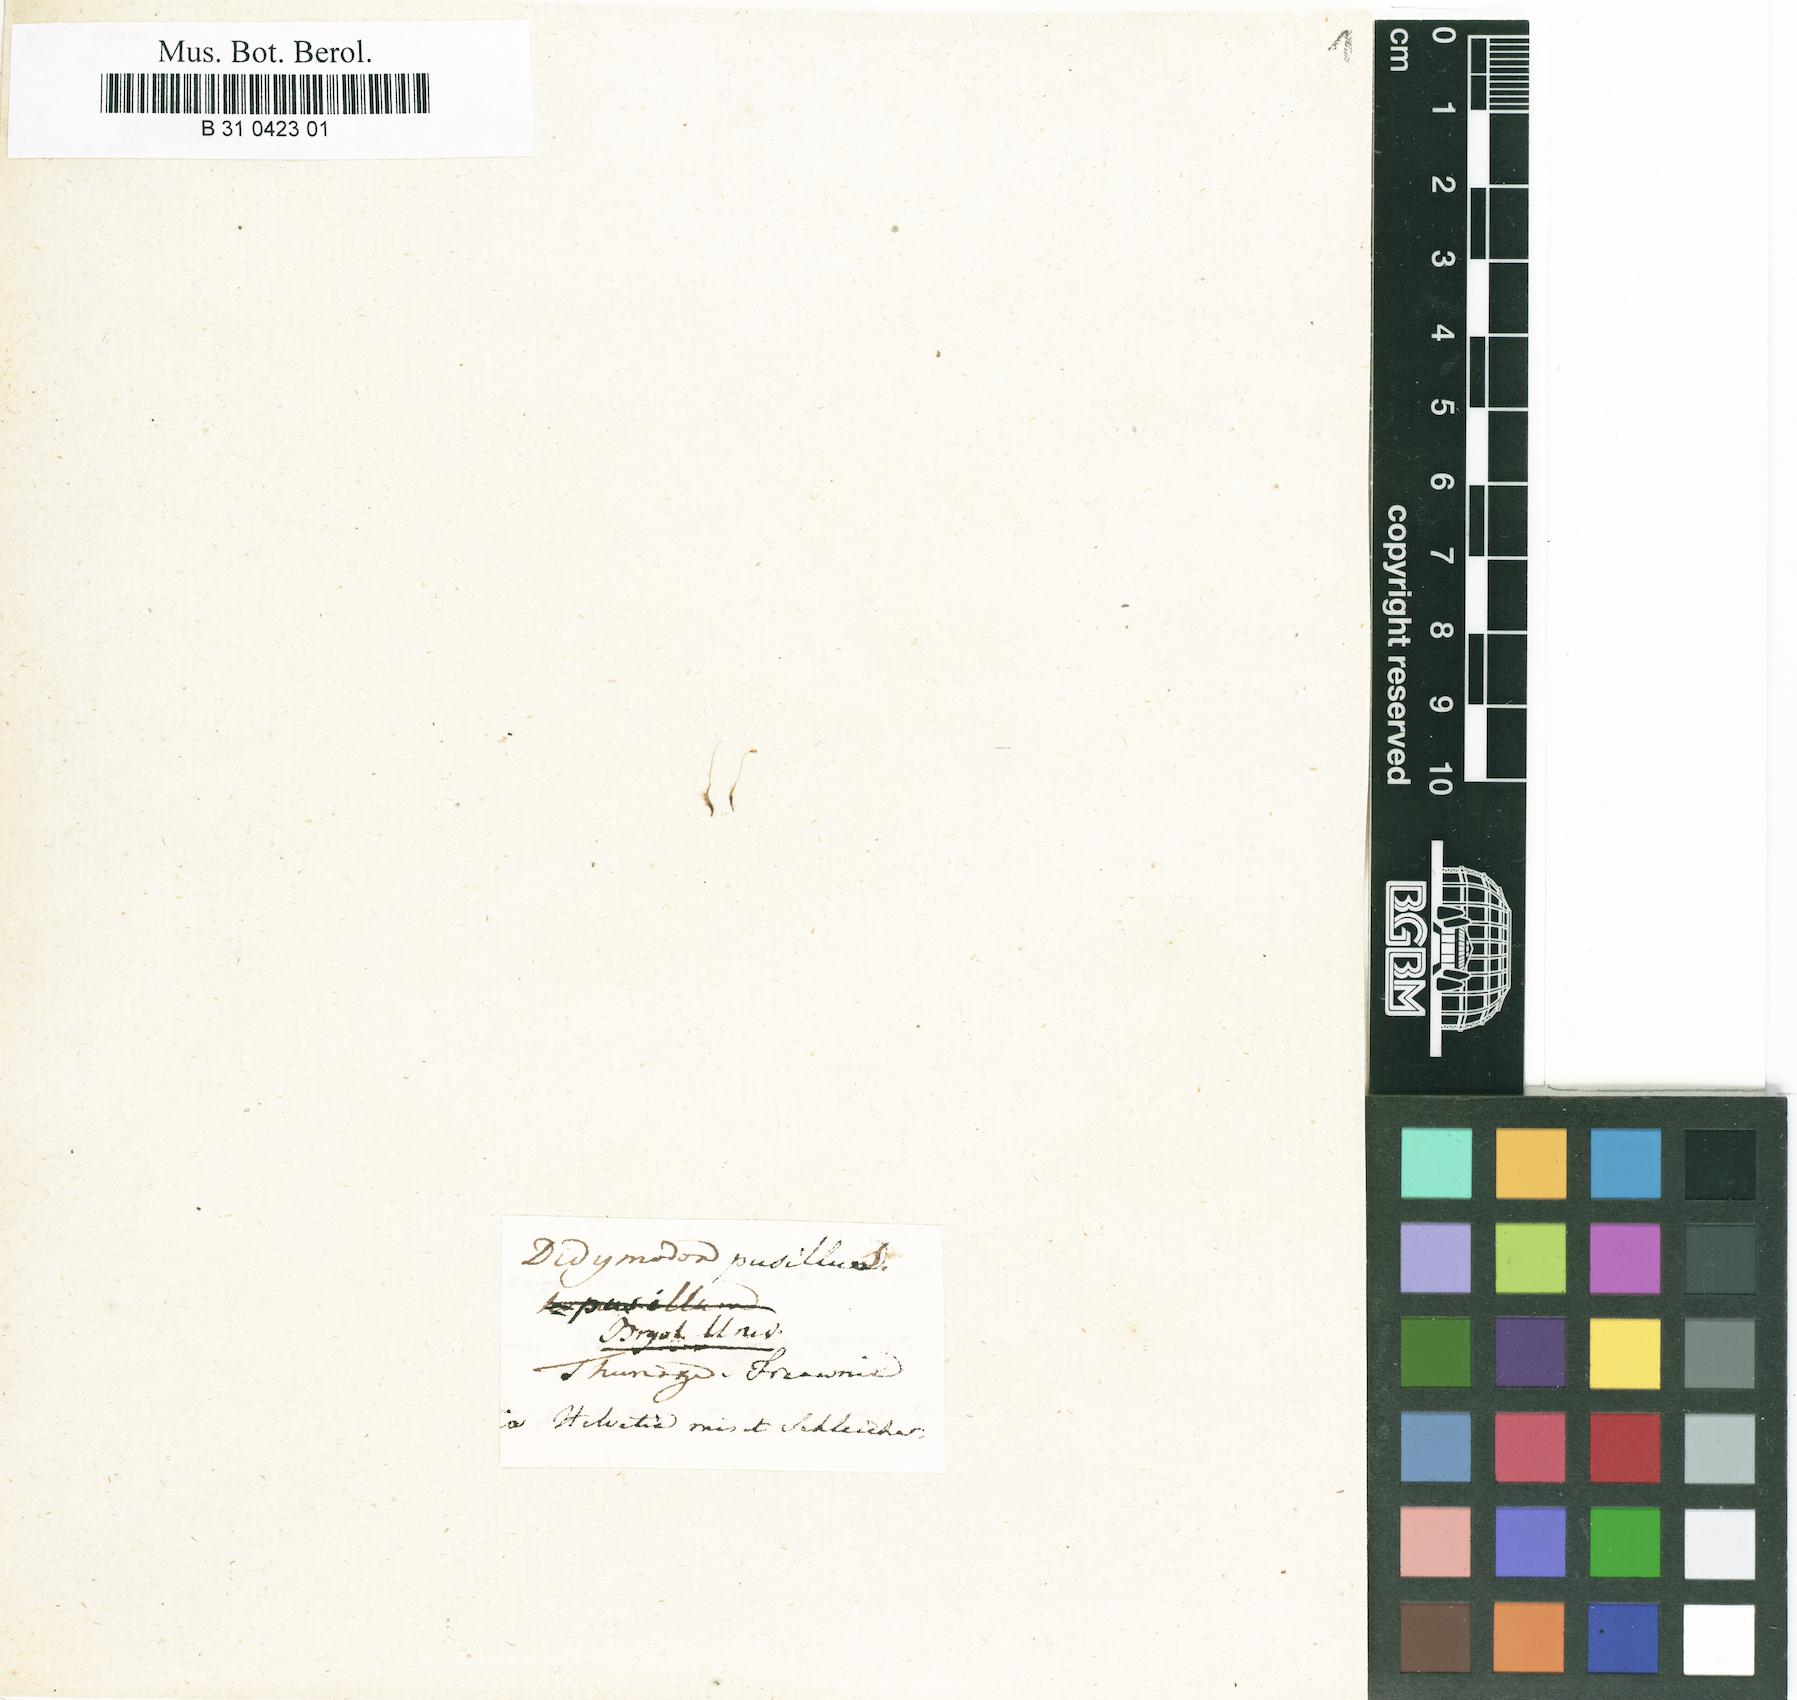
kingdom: Plantae
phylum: Bryophyta
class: Bryopsida
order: Dicranales
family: Ditrichaceae
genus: Ditrichum
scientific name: Ditrichum pusillum
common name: Brown cow-hair moss
